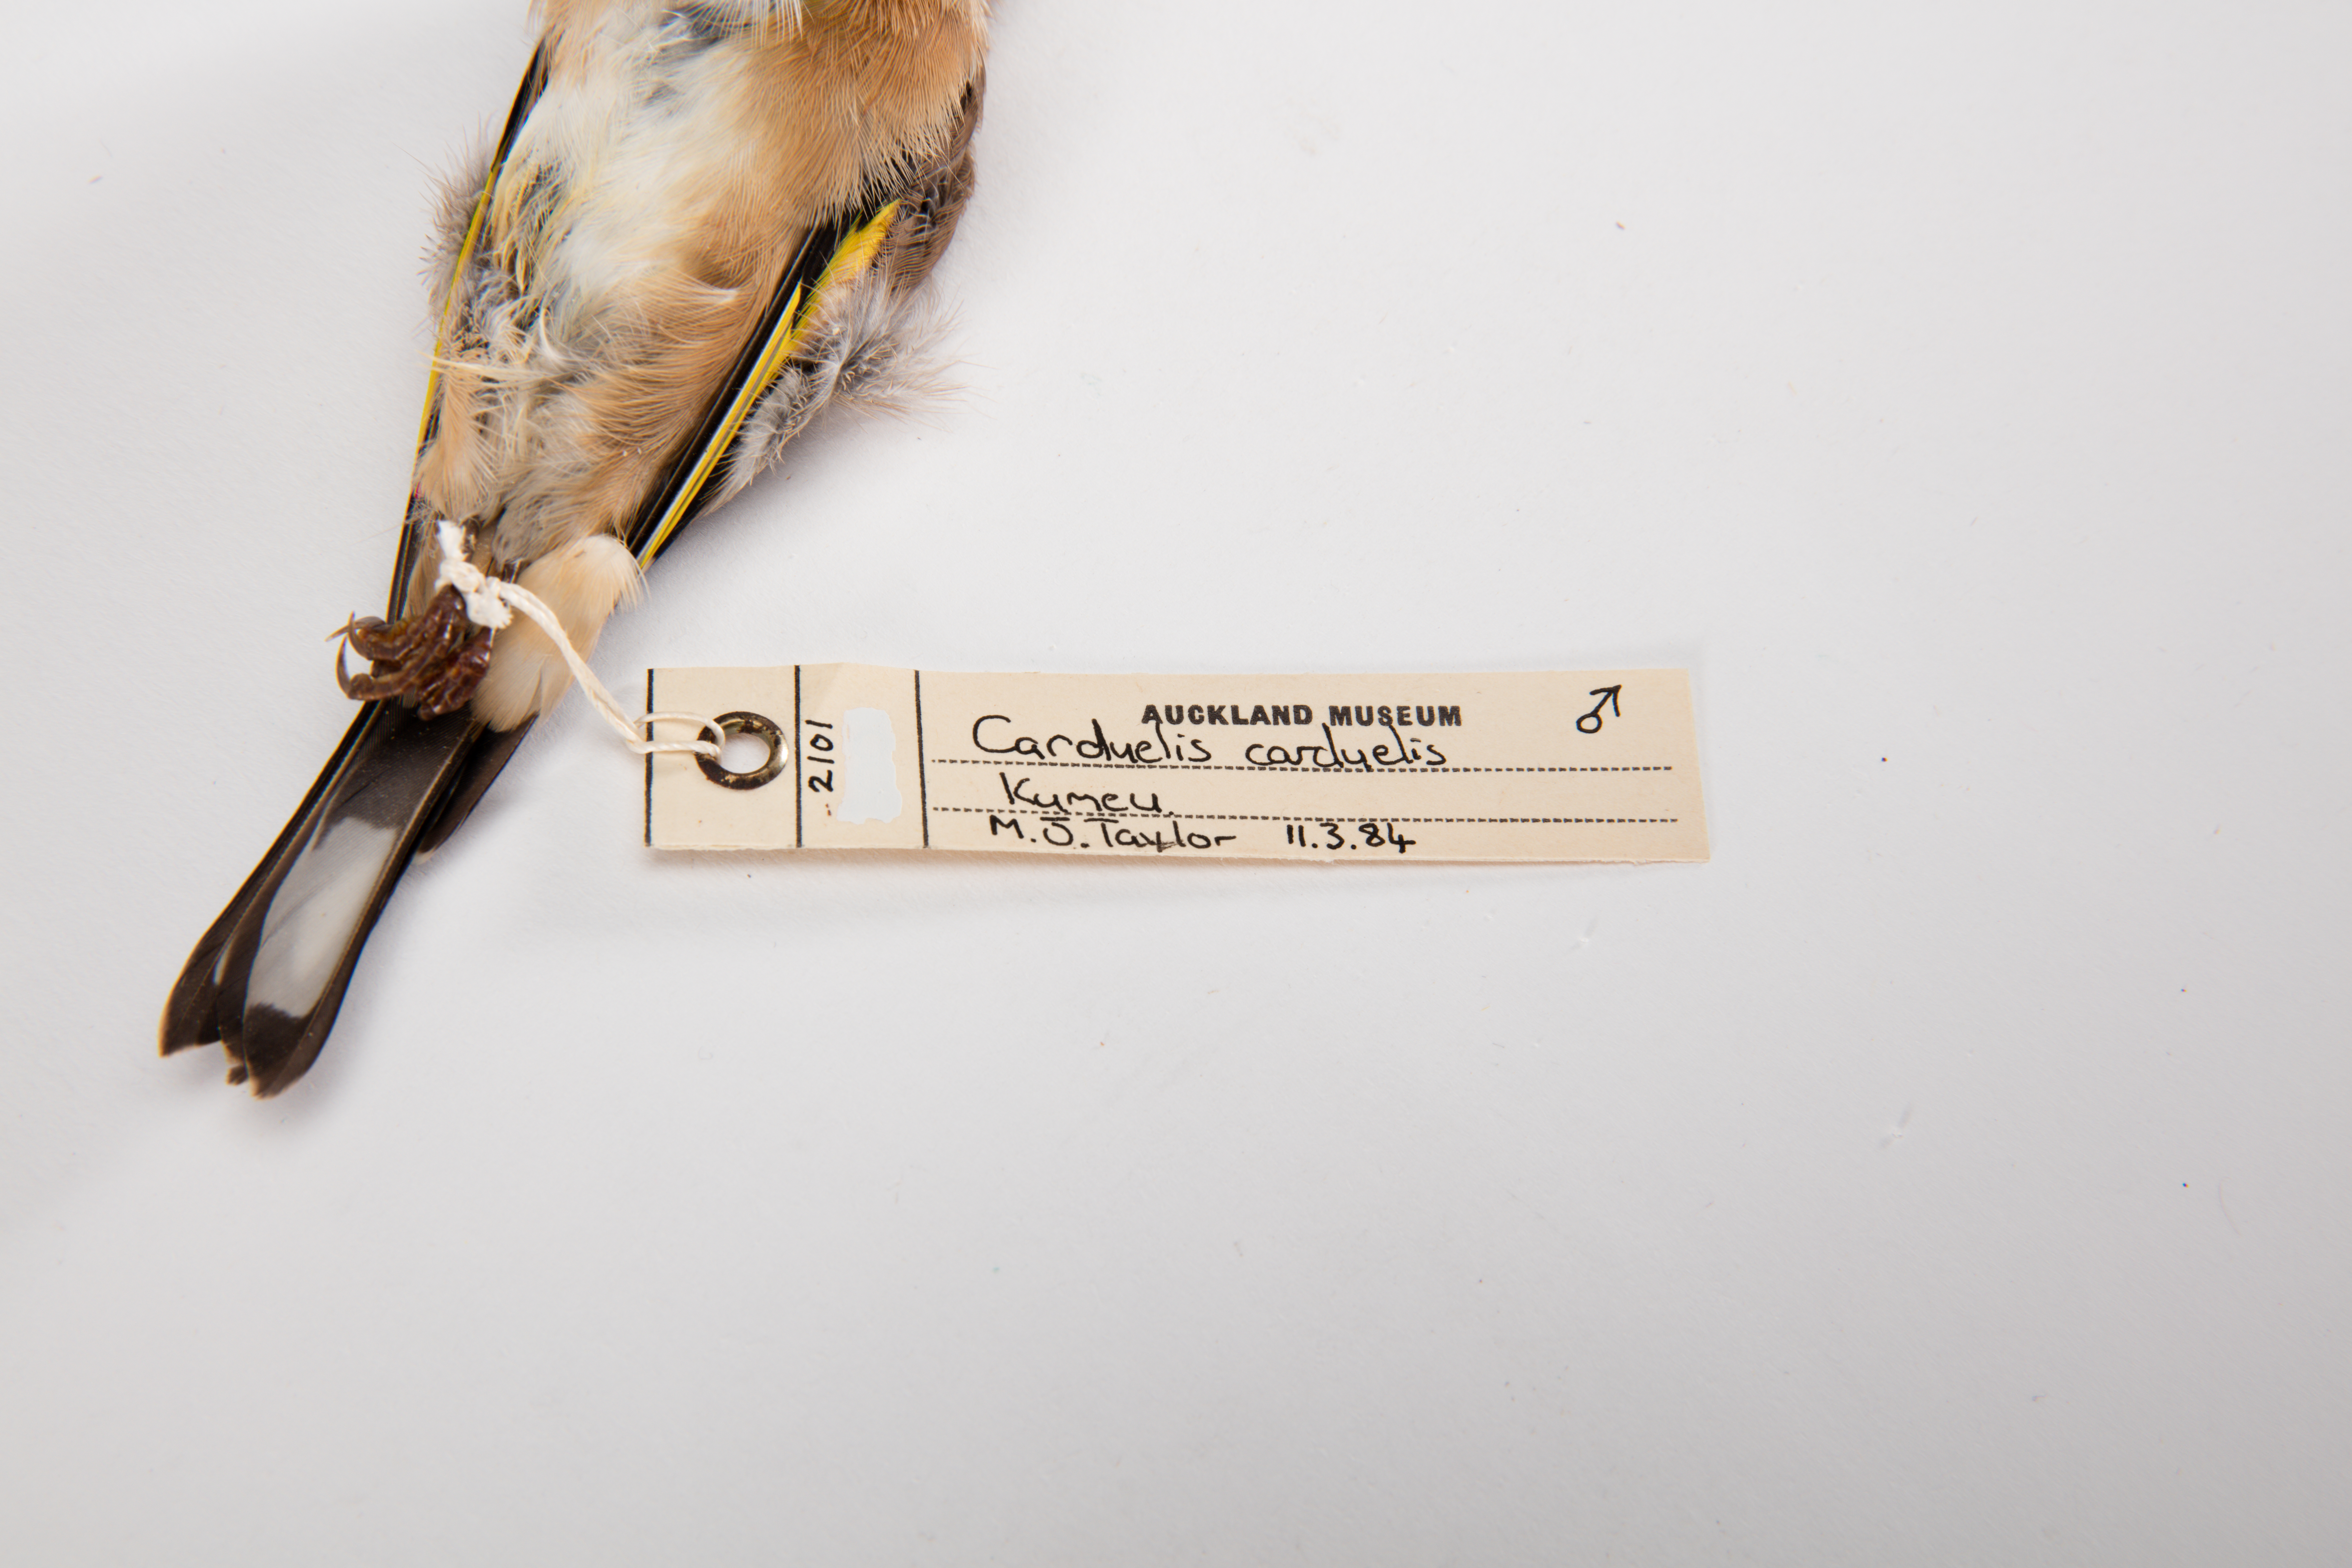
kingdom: Animalia
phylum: Chordata
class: Aves
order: Passeriformes
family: Fringillidae
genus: Carduelis
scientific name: Carduelis carduelis
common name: European goldfinch
